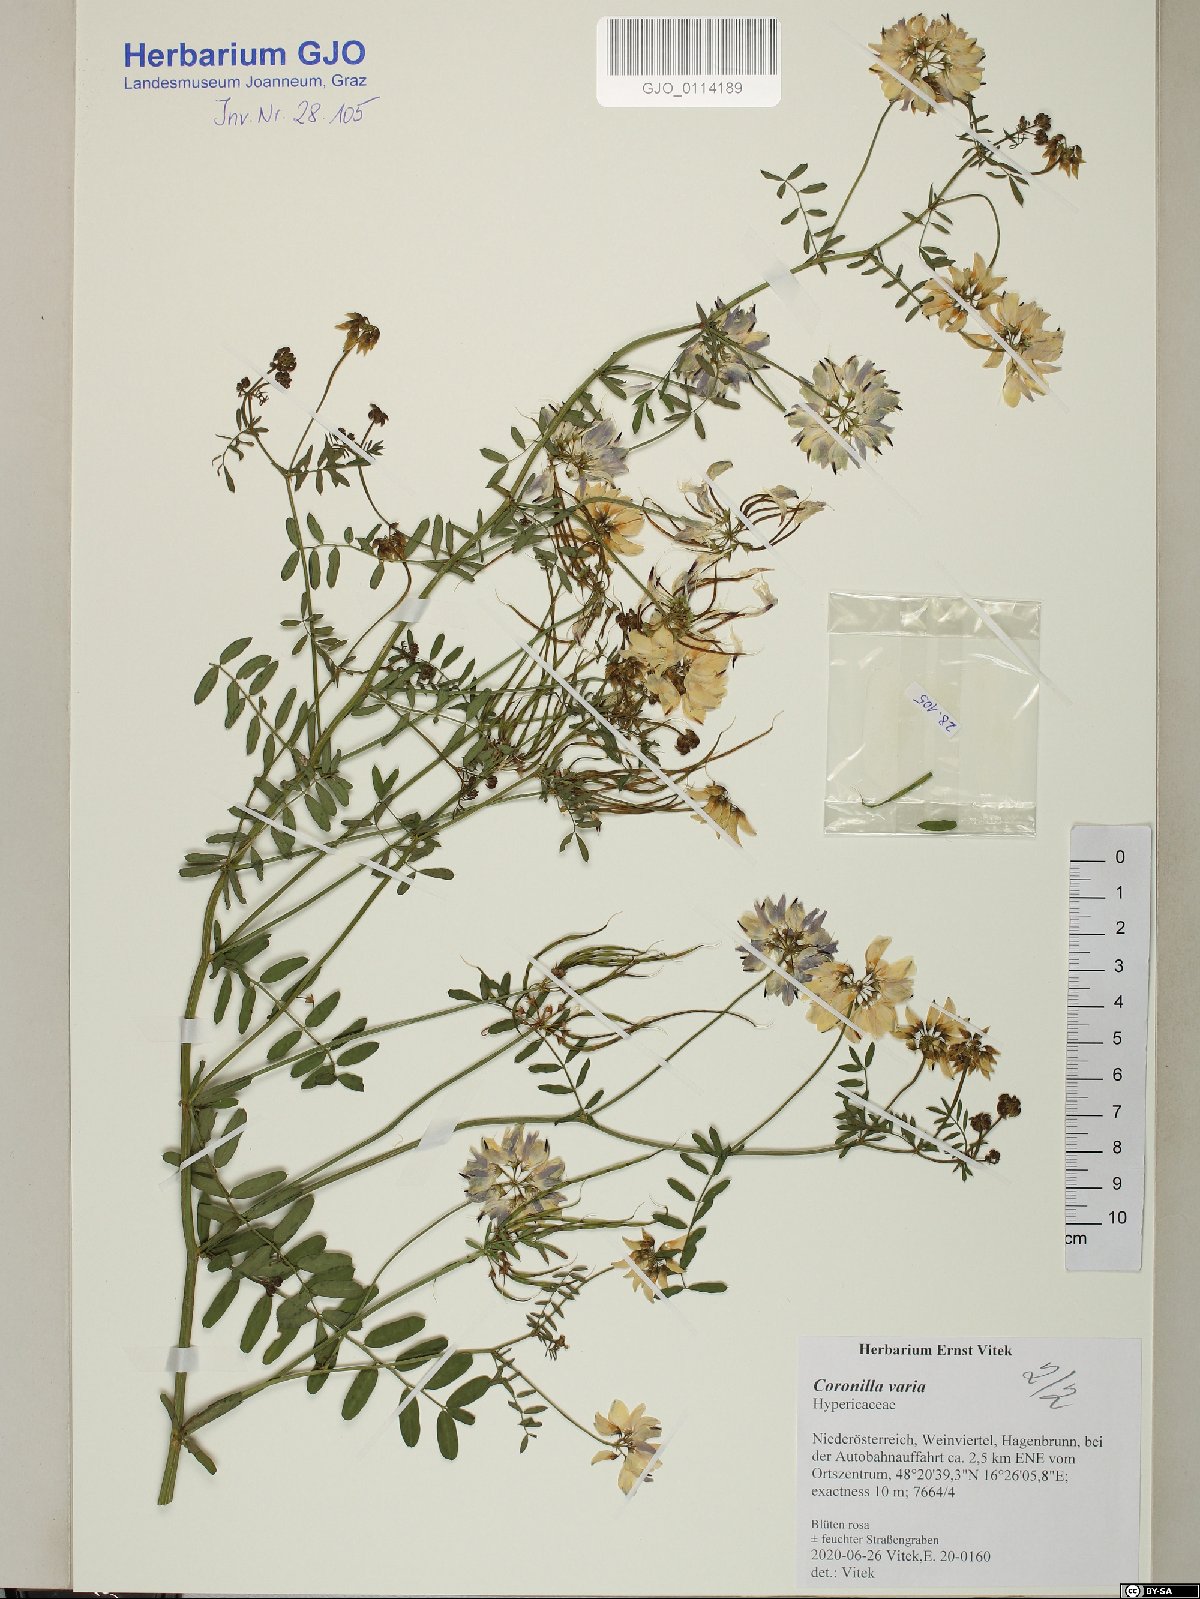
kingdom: Plantae
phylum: Tracheophyta
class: Magnoliopsida
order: Fabales
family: Fabaceae
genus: Coronilla
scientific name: Coronilla varia
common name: Crownvetch
